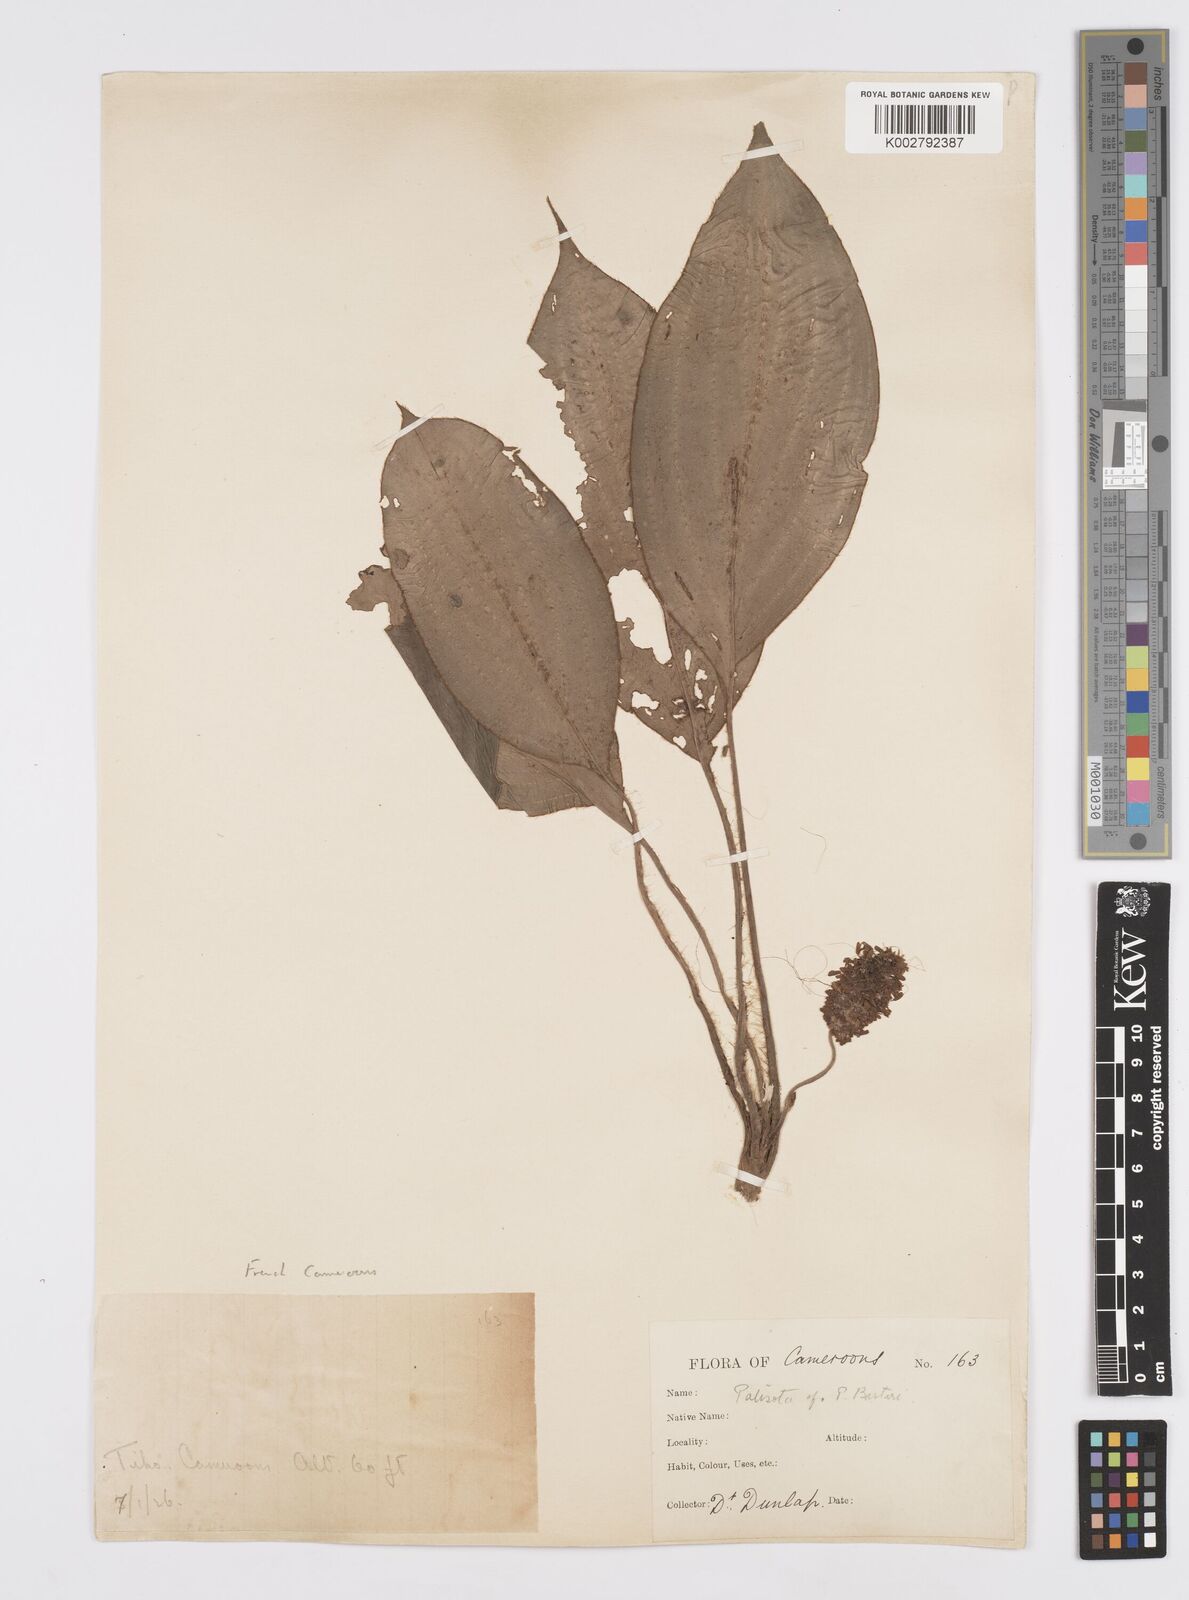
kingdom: Plantae
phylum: Tracheophyta
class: Liliopsida
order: Commelinales
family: Commelinaceae
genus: Palisota
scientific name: Palisota barteri
